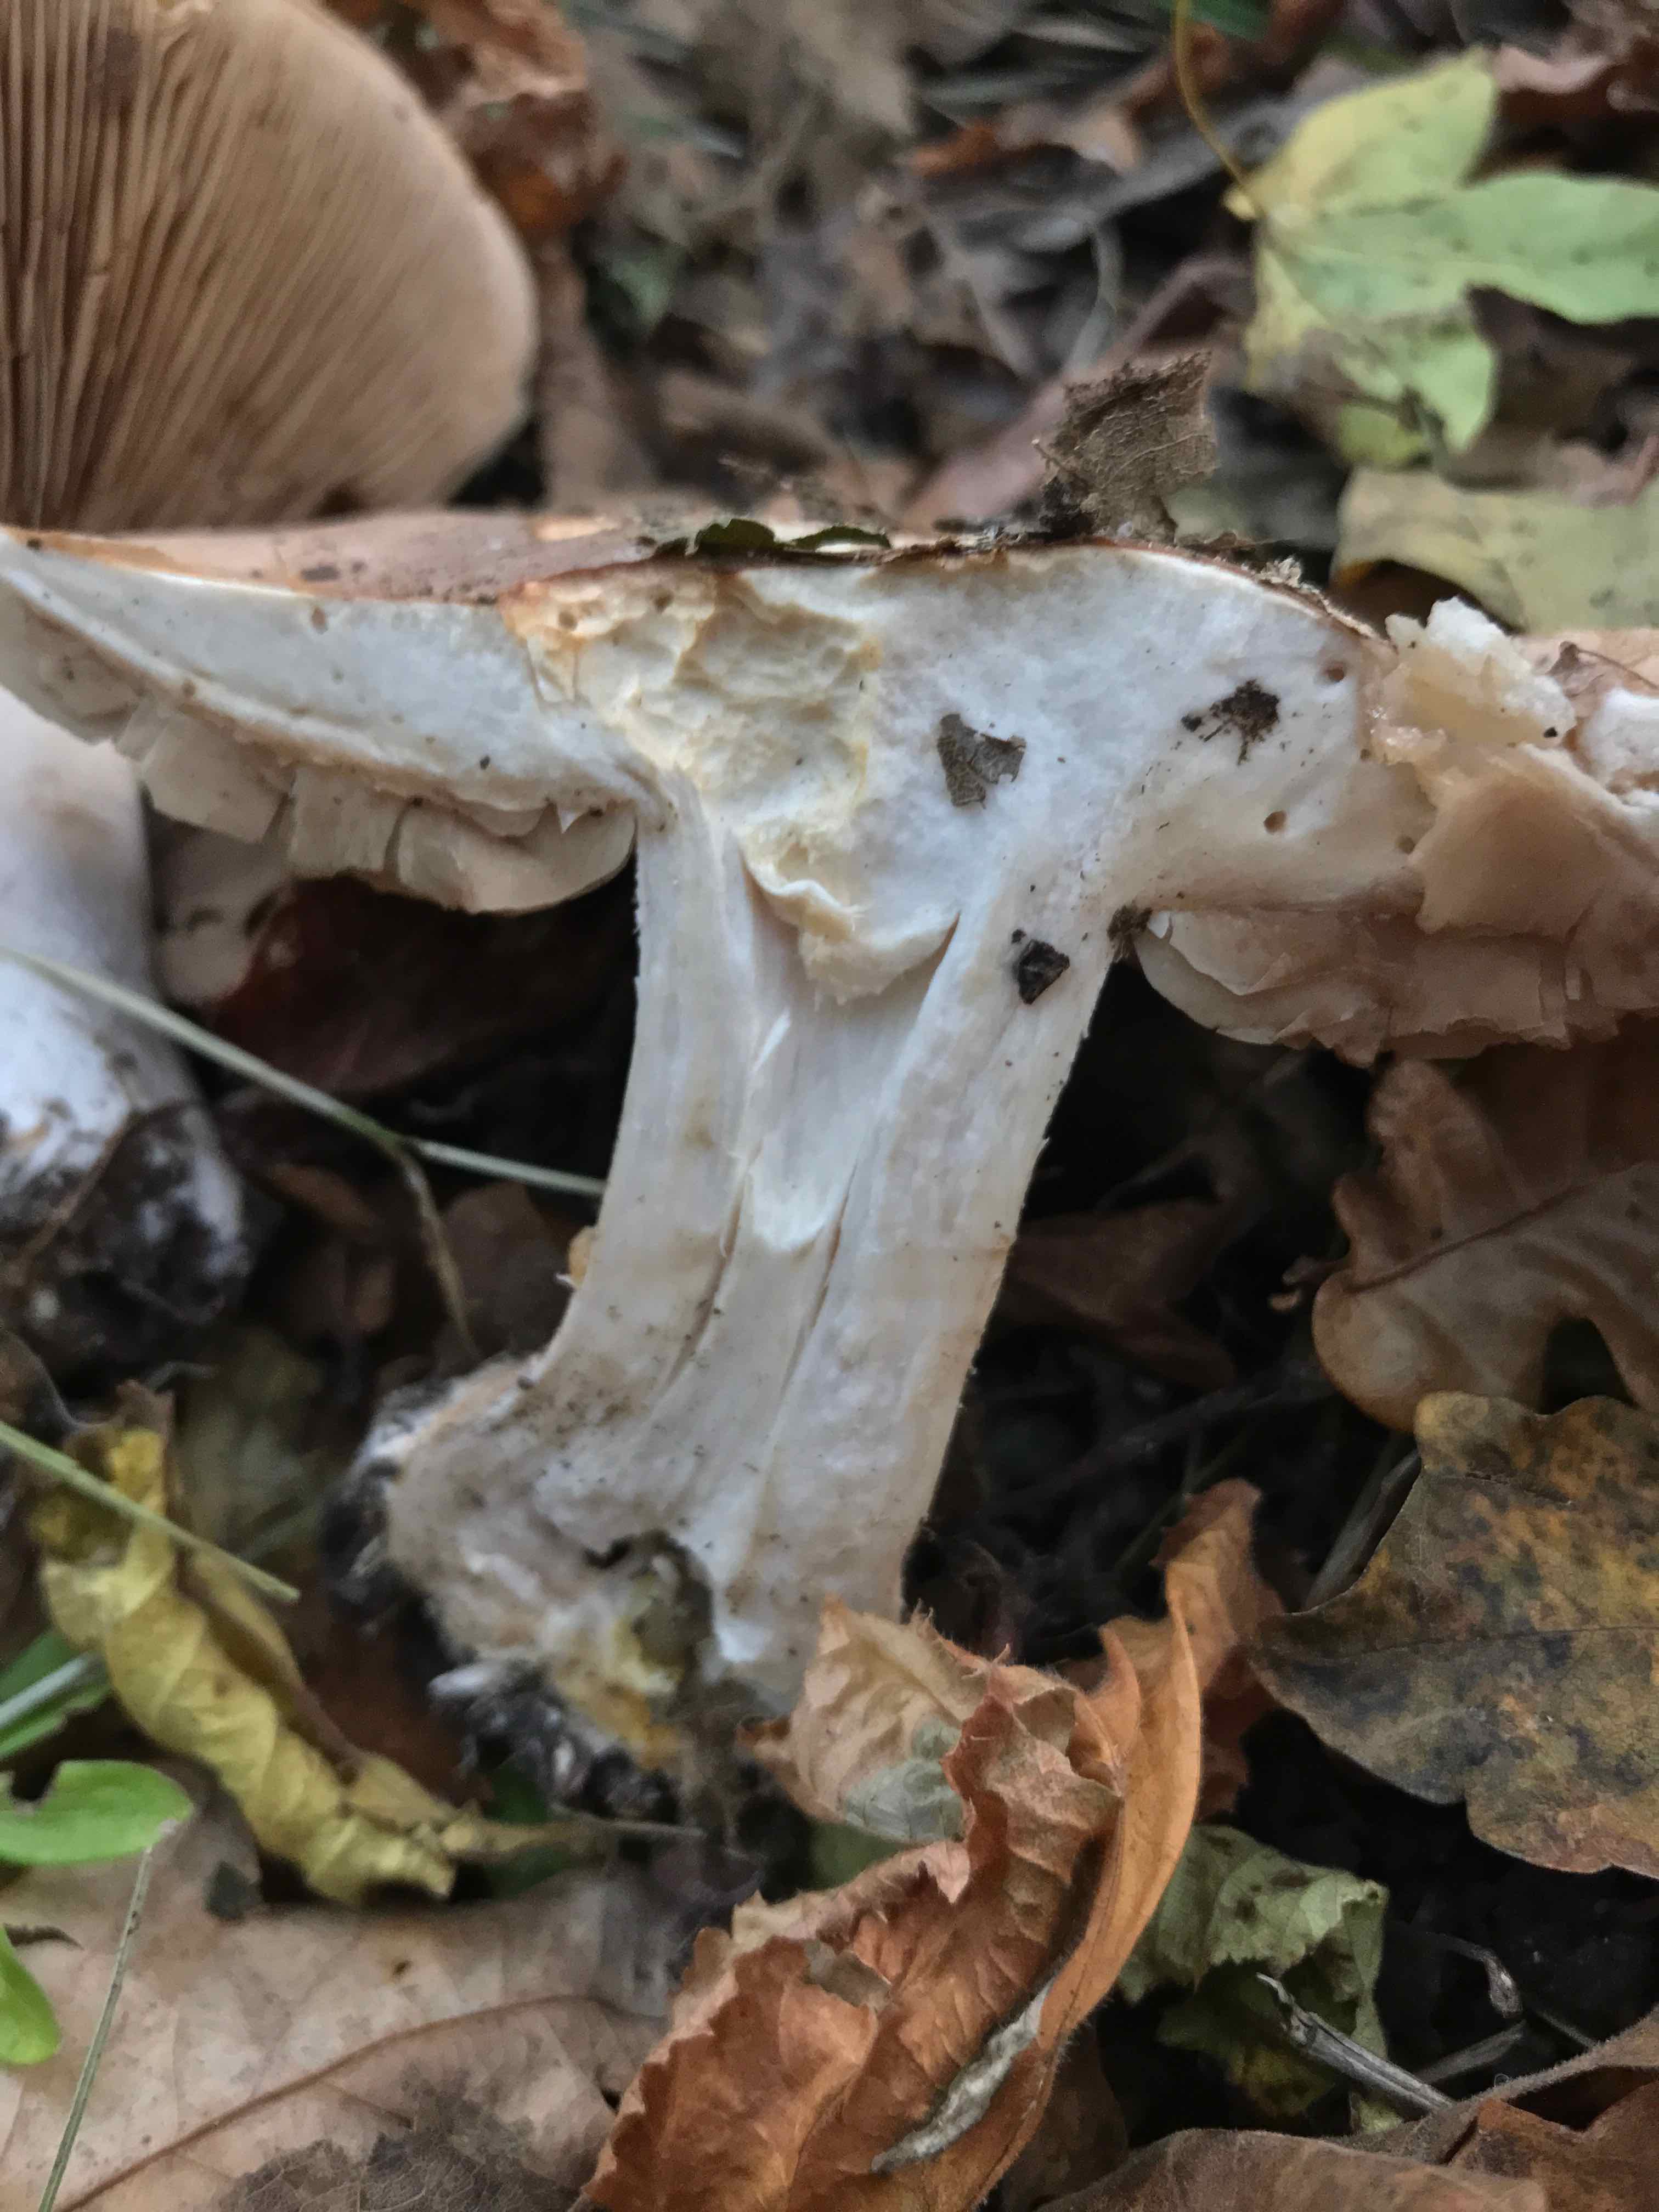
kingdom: Fungi
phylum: Basidiomycota
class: Agaricomycetes
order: Agaricales
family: Hymenogastraceae
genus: Hebeloma
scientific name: Hebeloma sinapizans
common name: ræddike-tåreblad
